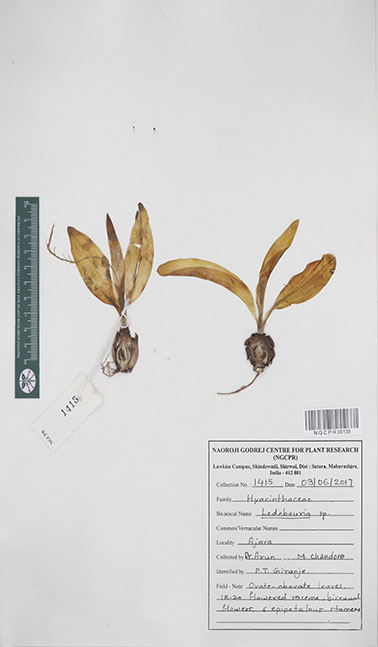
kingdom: Plantae
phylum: Tracheophyta
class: Liliopsida
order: Asparagales
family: Asparagaceae
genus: Ledebouria
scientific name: Ledebouria
